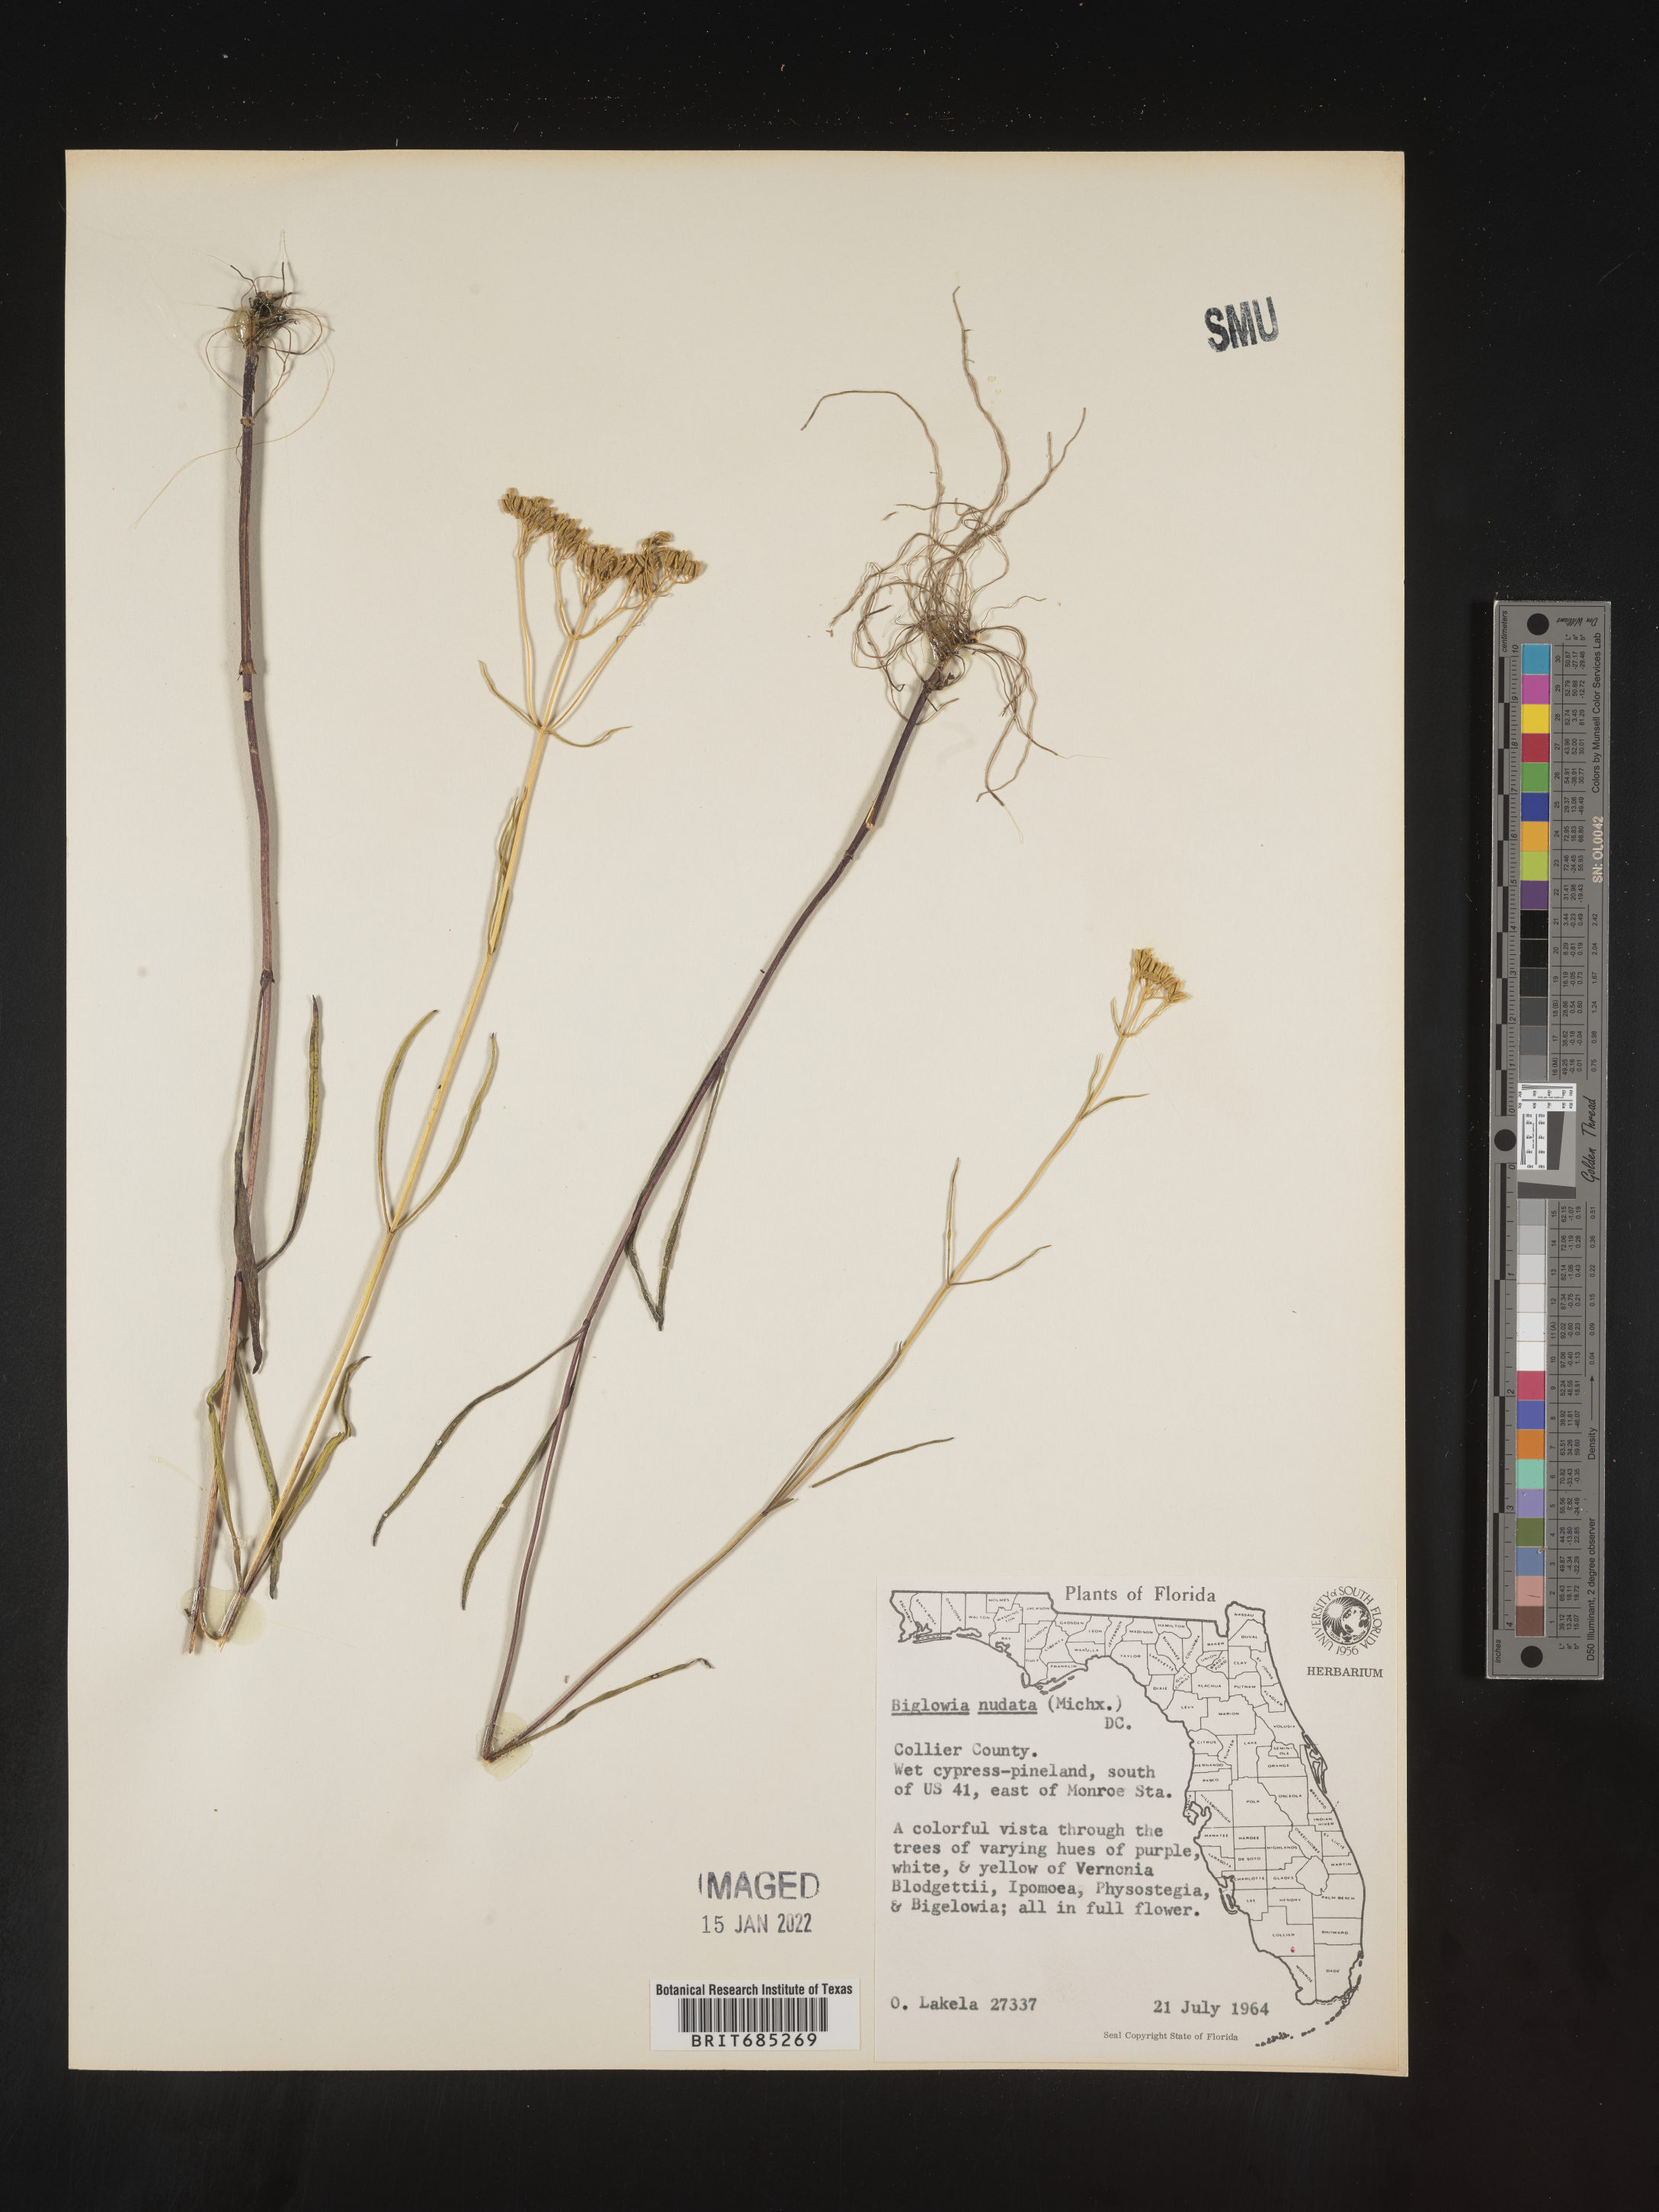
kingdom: Plantae
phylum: Tracheophyta
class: Magnoliopsida
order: Asterales
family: Asteraceae
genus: Bigelowia
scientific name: Bigelowia nudata
